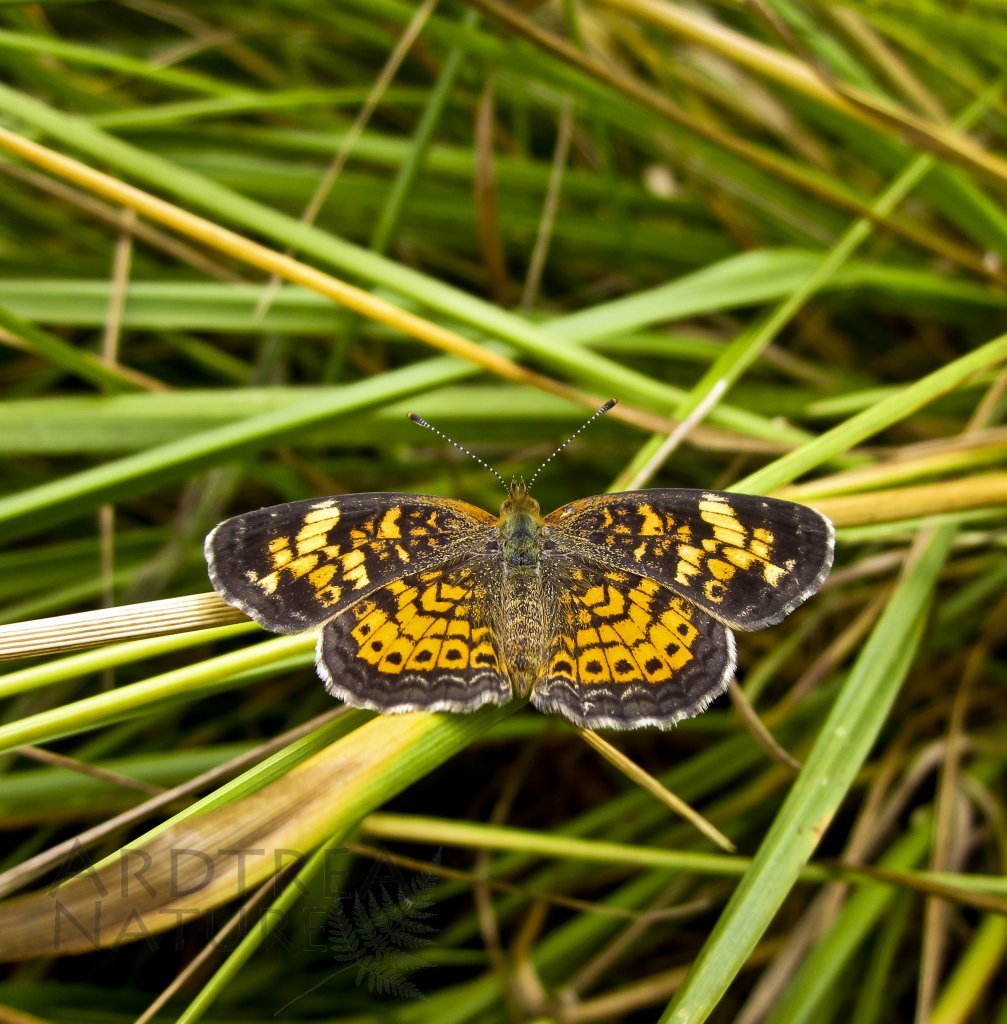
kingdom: Animalia
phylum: Arthropoda
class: Insecta
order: Lepidoptera
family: Nymphalidae
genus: Phyciodes
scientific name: Phyciodes tharos
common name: Pearl Crescent
